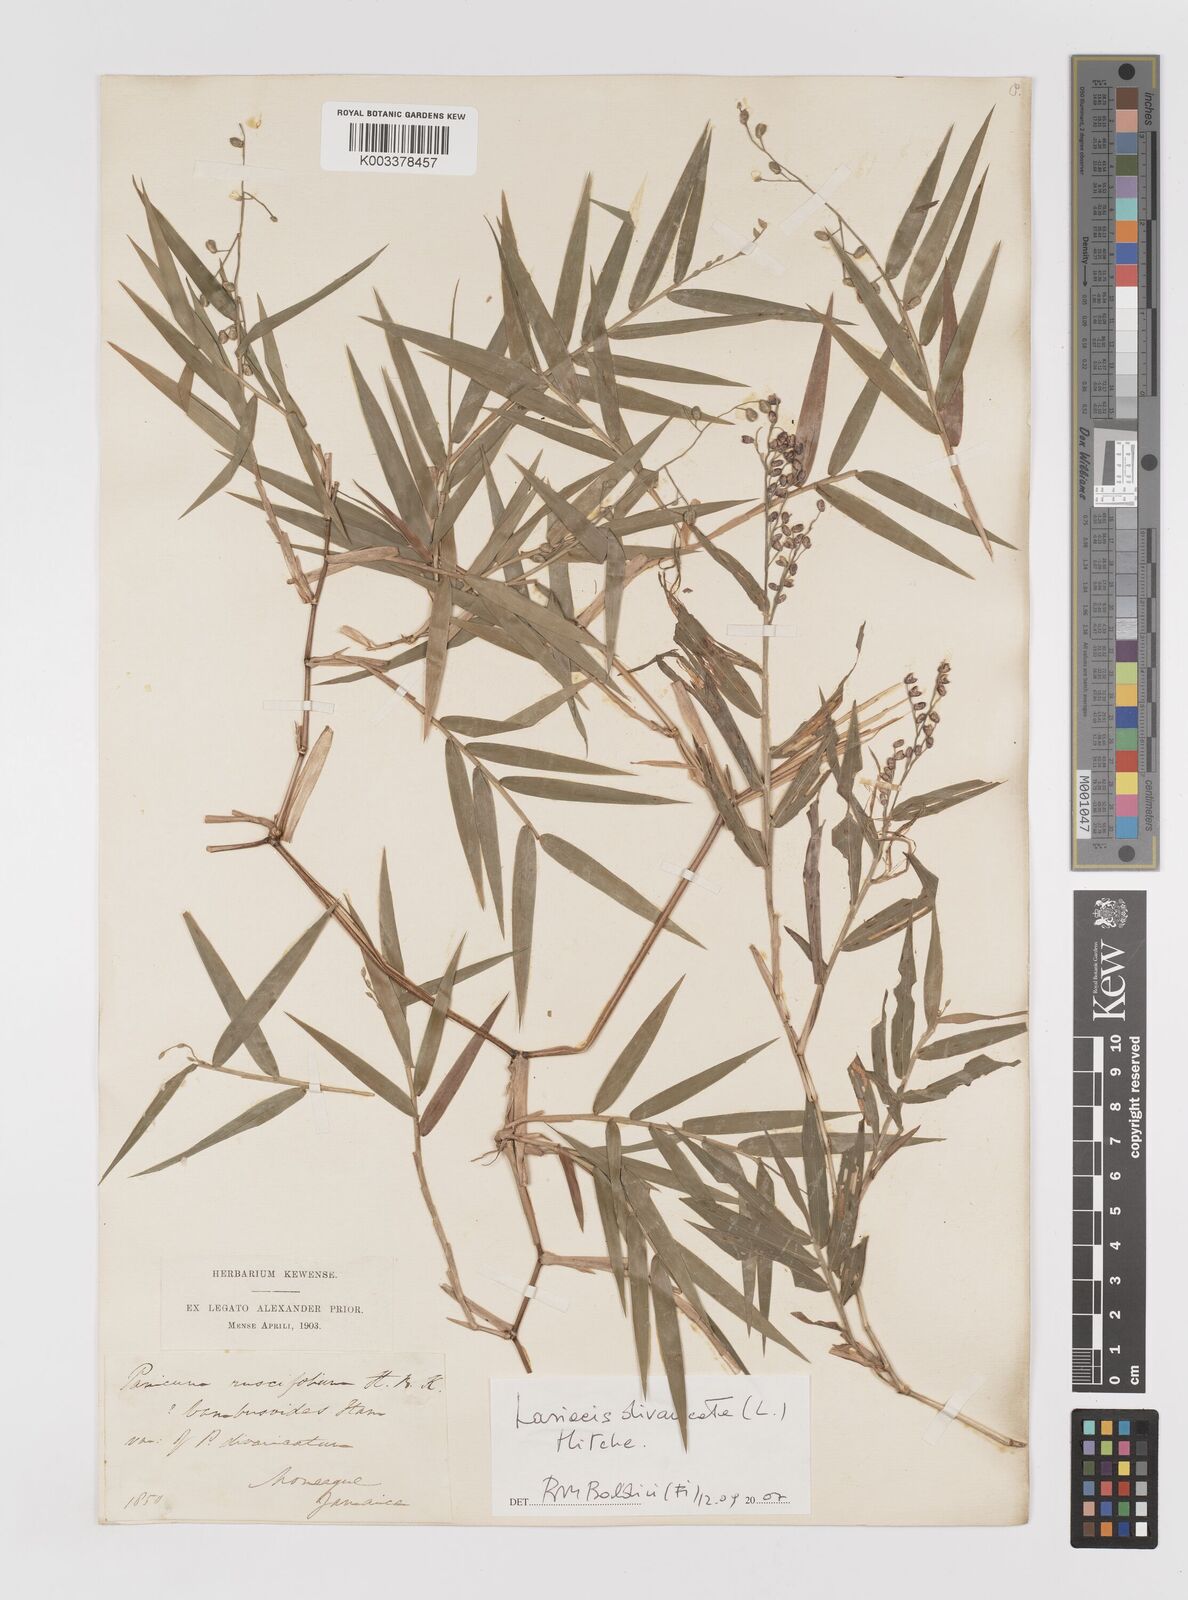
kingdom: Plantae
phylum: Tracheophyta
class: Liliopsida
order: Poales
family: Poaceae
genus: Lasiacis
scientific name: Lasiacis divaricata
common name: Smallcane
